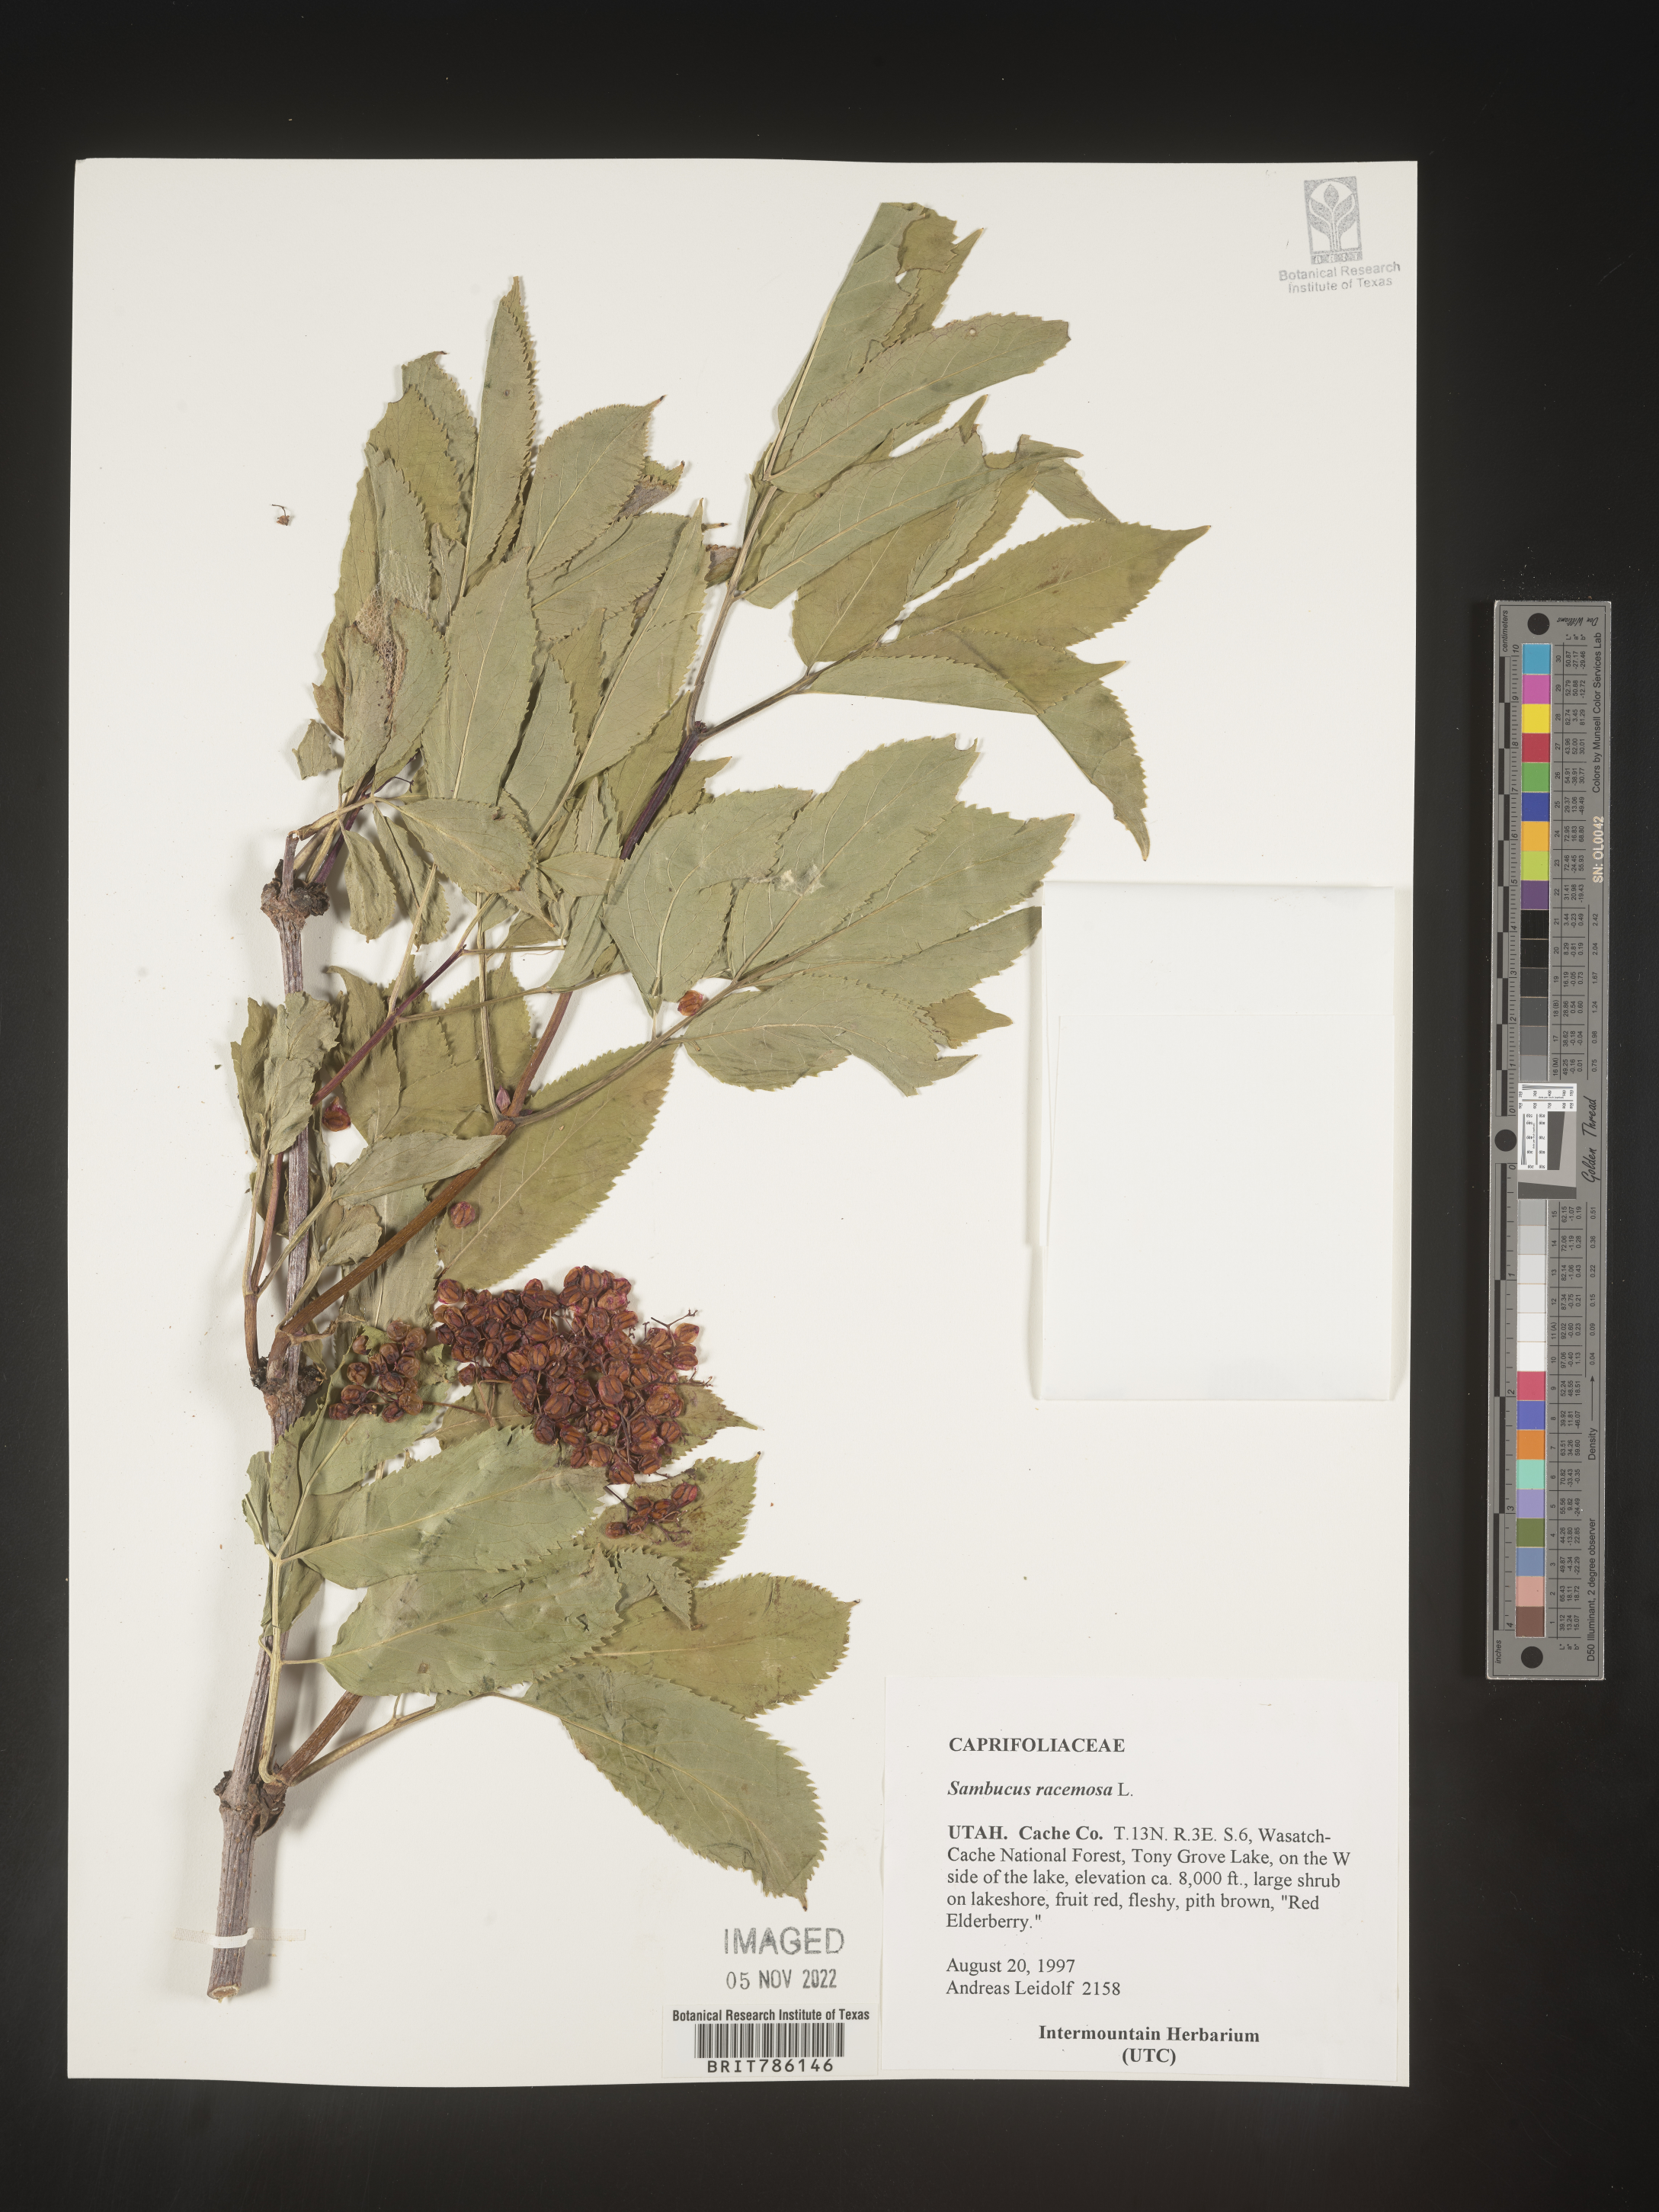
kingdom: Plantae
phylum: Tracheophyta
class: Magnoliopsida
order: Dipsacales
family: Viburnaceae
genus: Sambucus
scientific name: Sambucus
